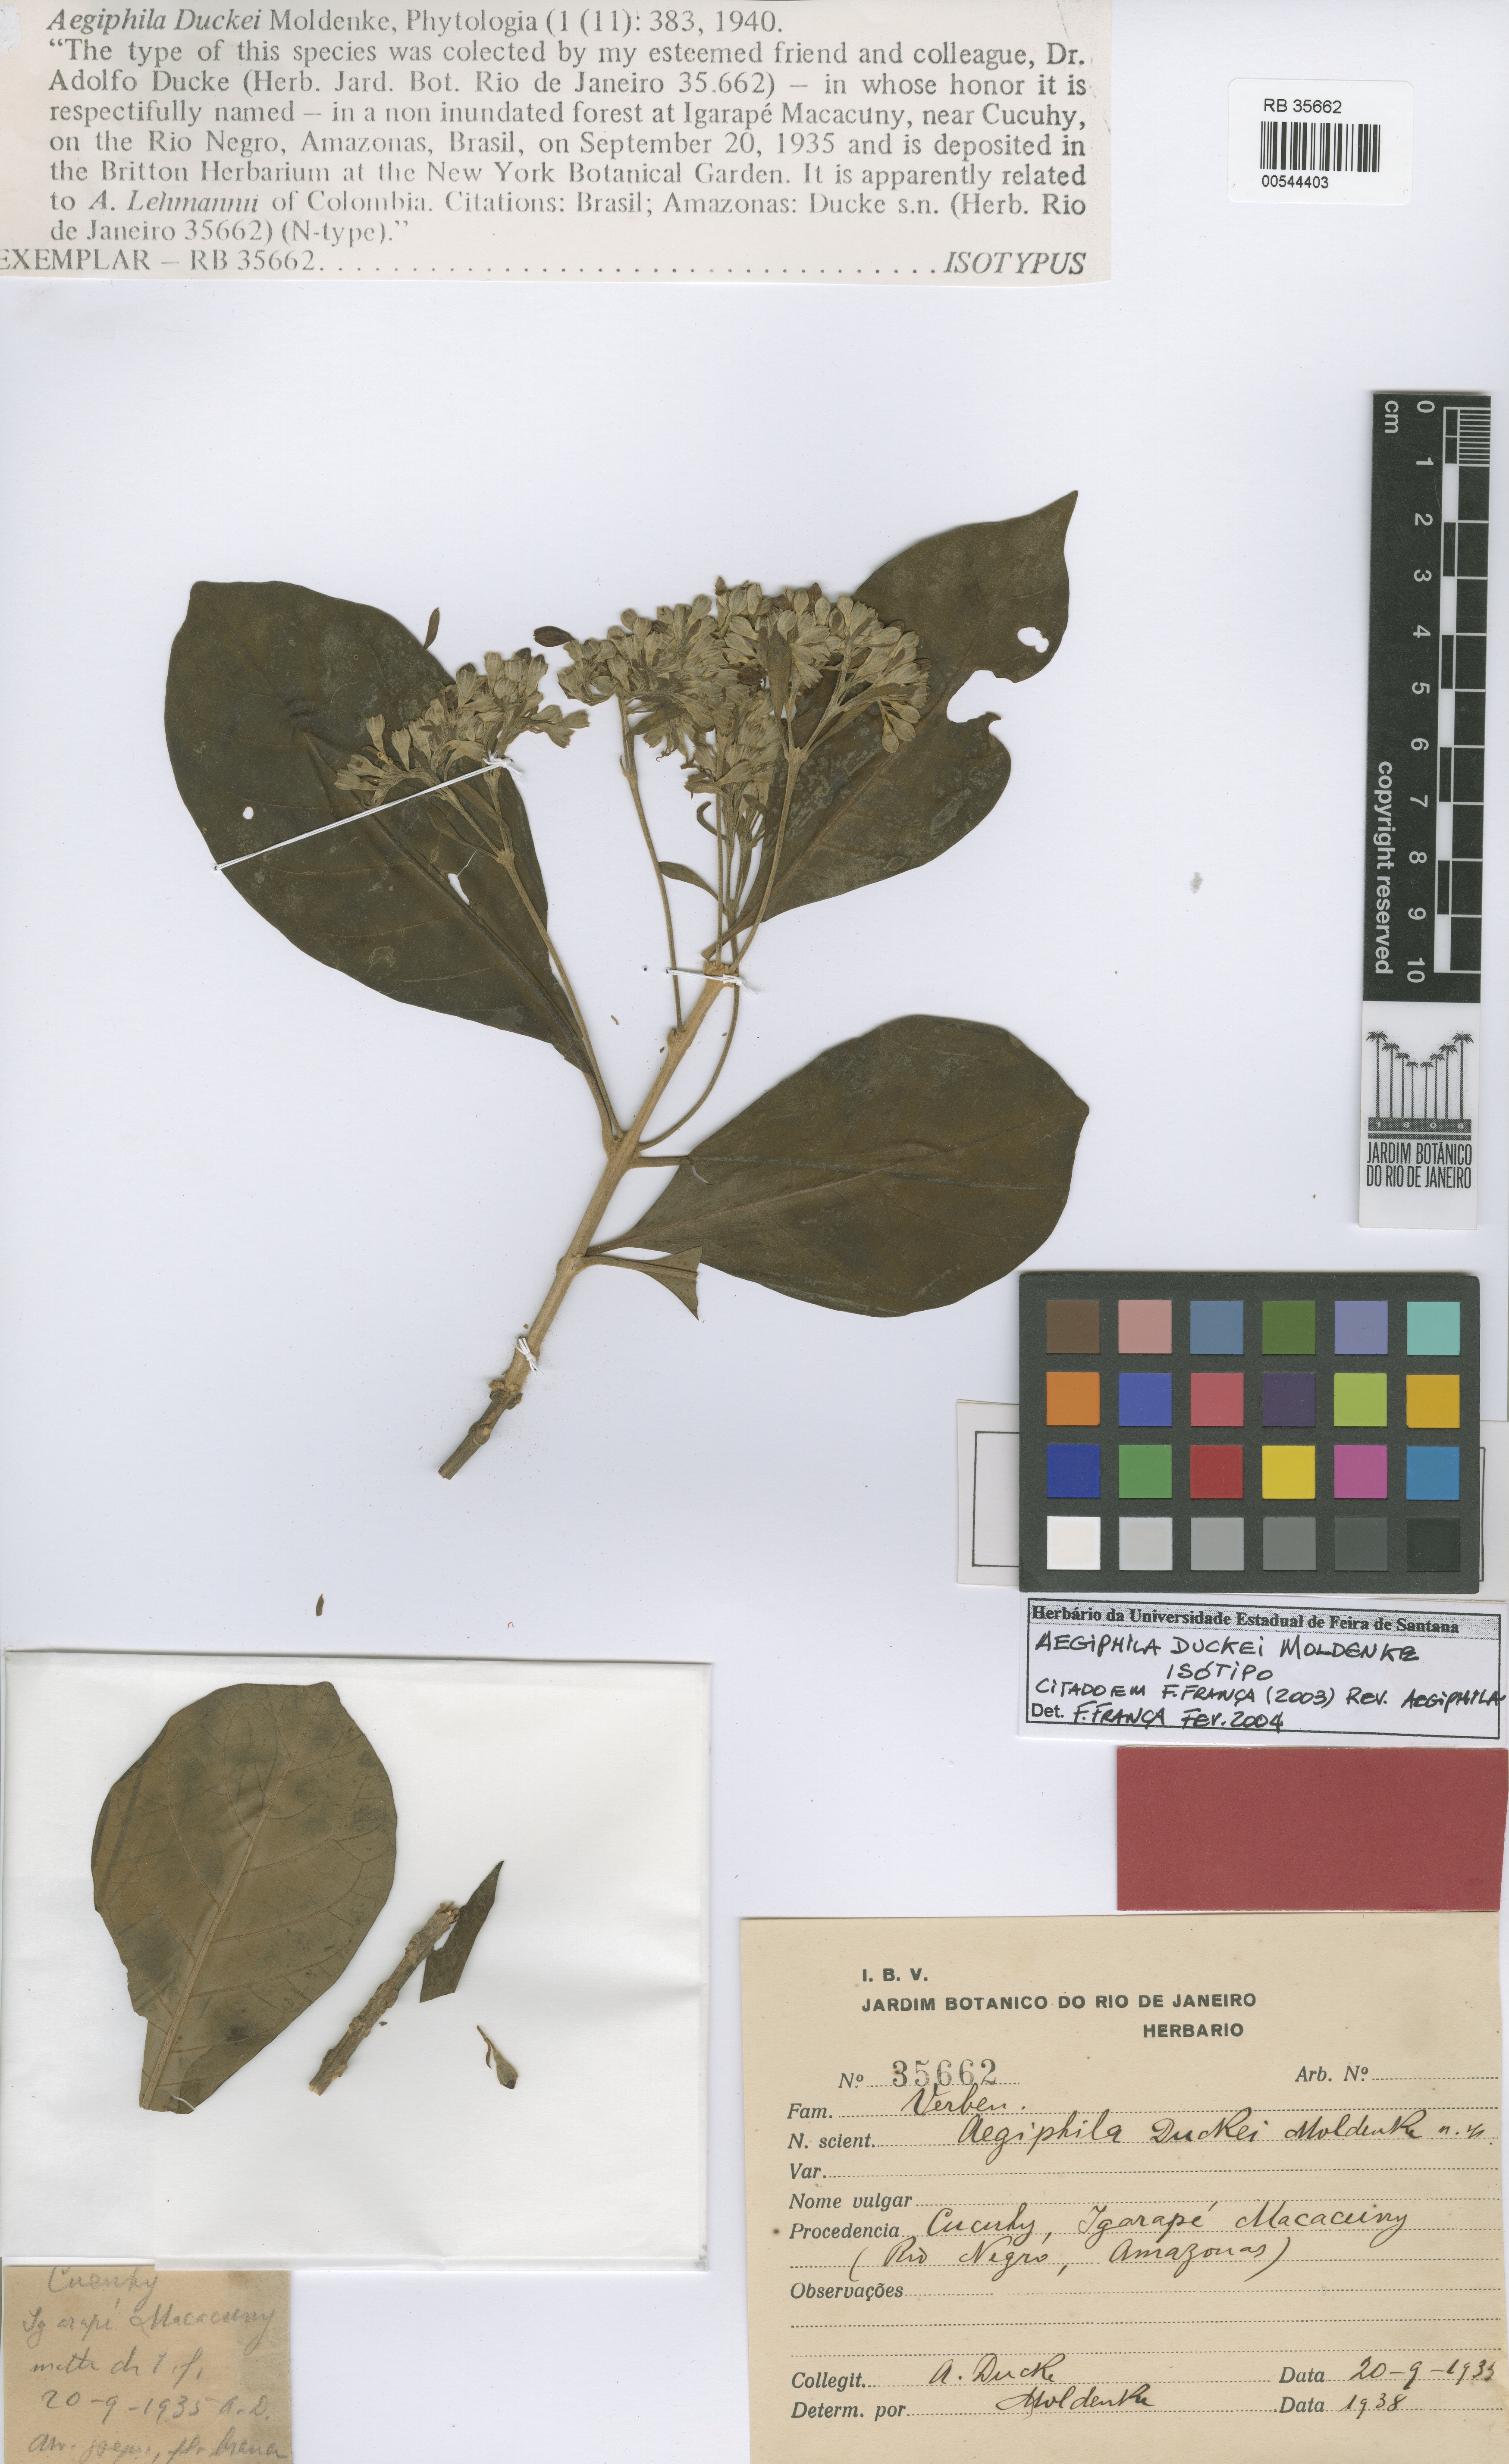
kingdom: Plantae
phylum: Tracheophyta
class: Magnoliopsida
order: Lamiales
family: Lamiaceae
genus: Aegiphila
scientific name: Aegiphila duckei
